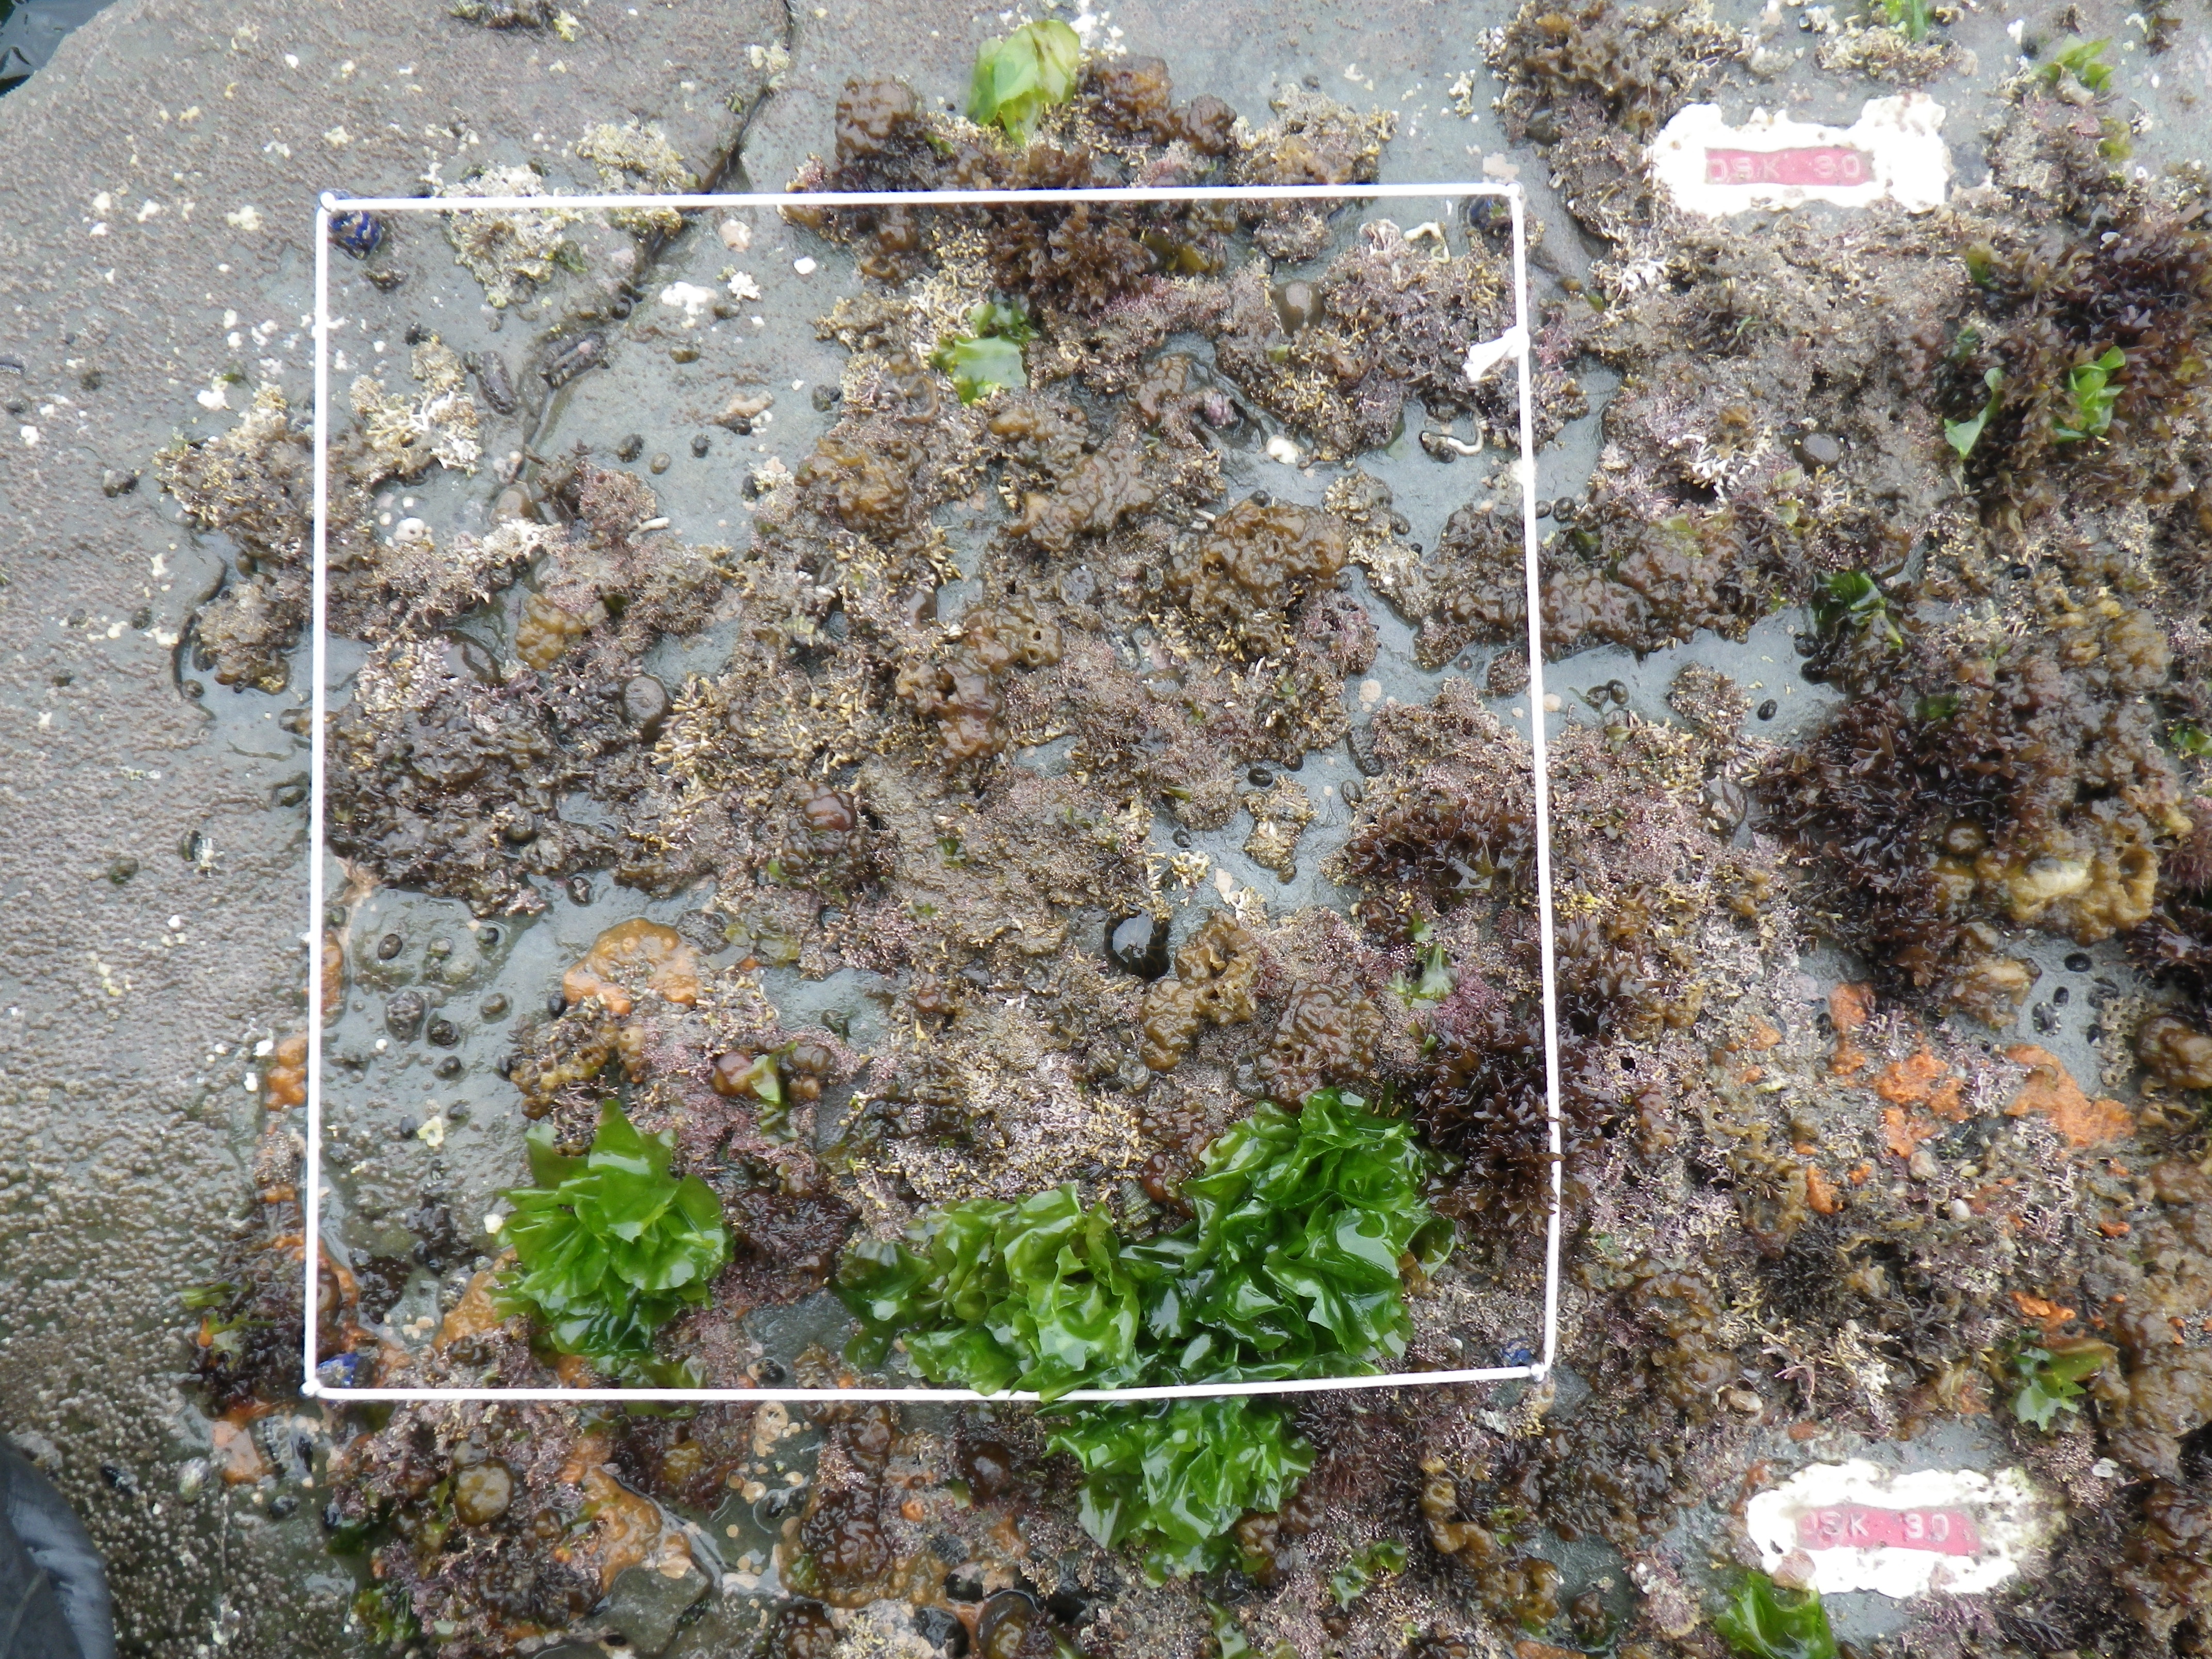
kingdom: Animalia
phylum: Arthropoda
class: Maxillopoda
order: Sessilia
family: Chthamalidae
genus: Chthamalus
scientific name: Chthamalus challengeri
